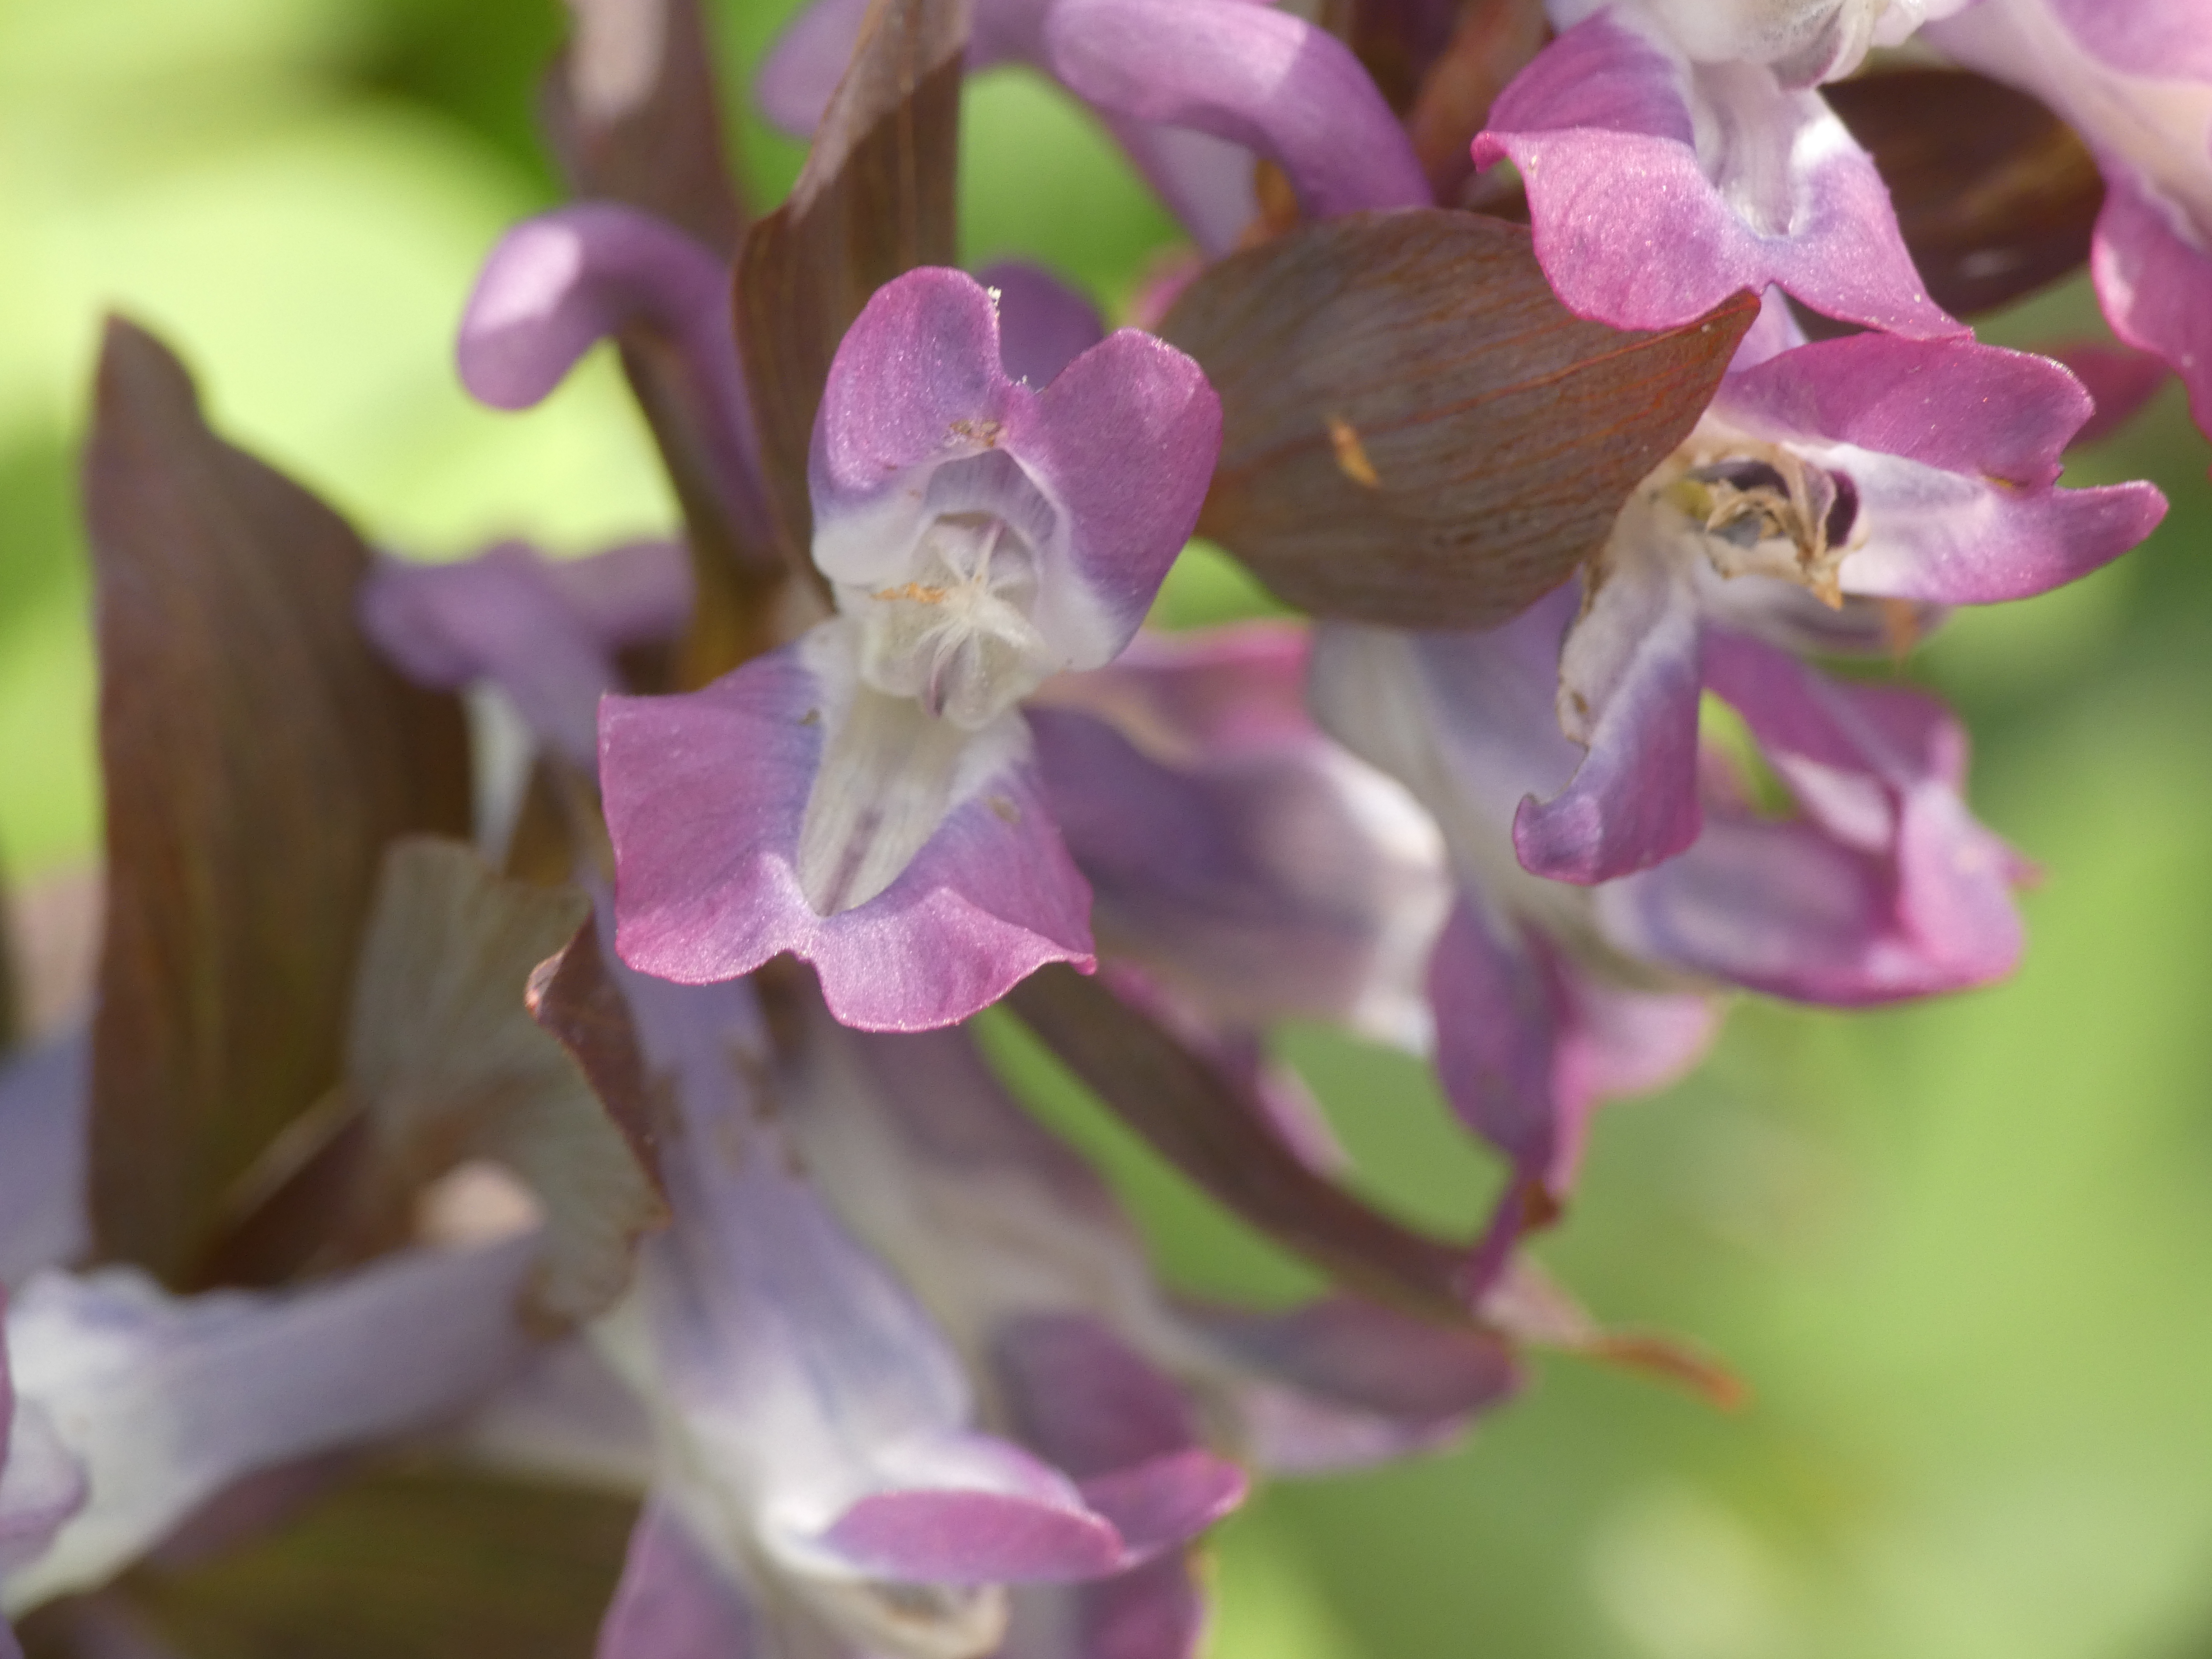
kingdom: Plantae
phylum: Tracheophyta
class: Magnoliopsida
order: Ranunculales
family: Papaveraceae
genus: Corydalis
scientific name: Corydalis cava
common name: Hulrodet lærkespore
